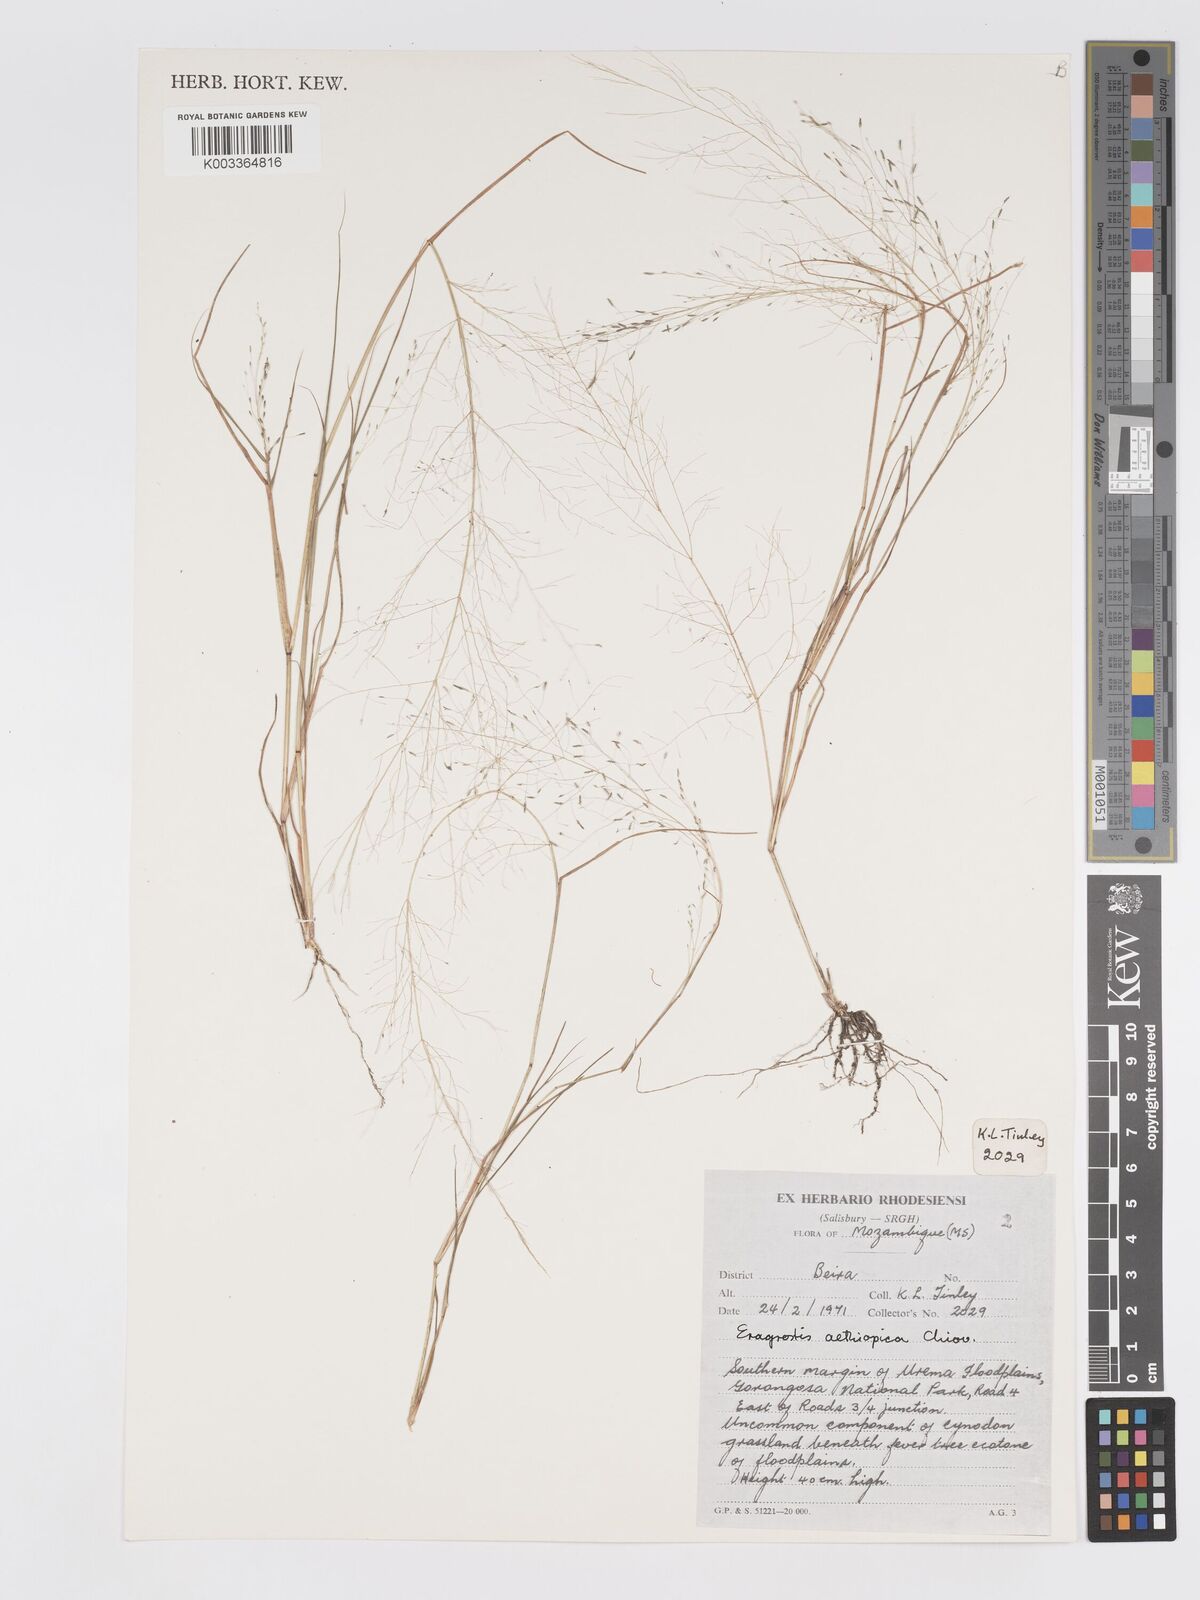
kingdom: Plantae
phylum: Tracheophyta
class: Liliopsida
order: Poales
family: Poaceae
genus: Eragrostis
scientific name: Eragrostis aethiopica
